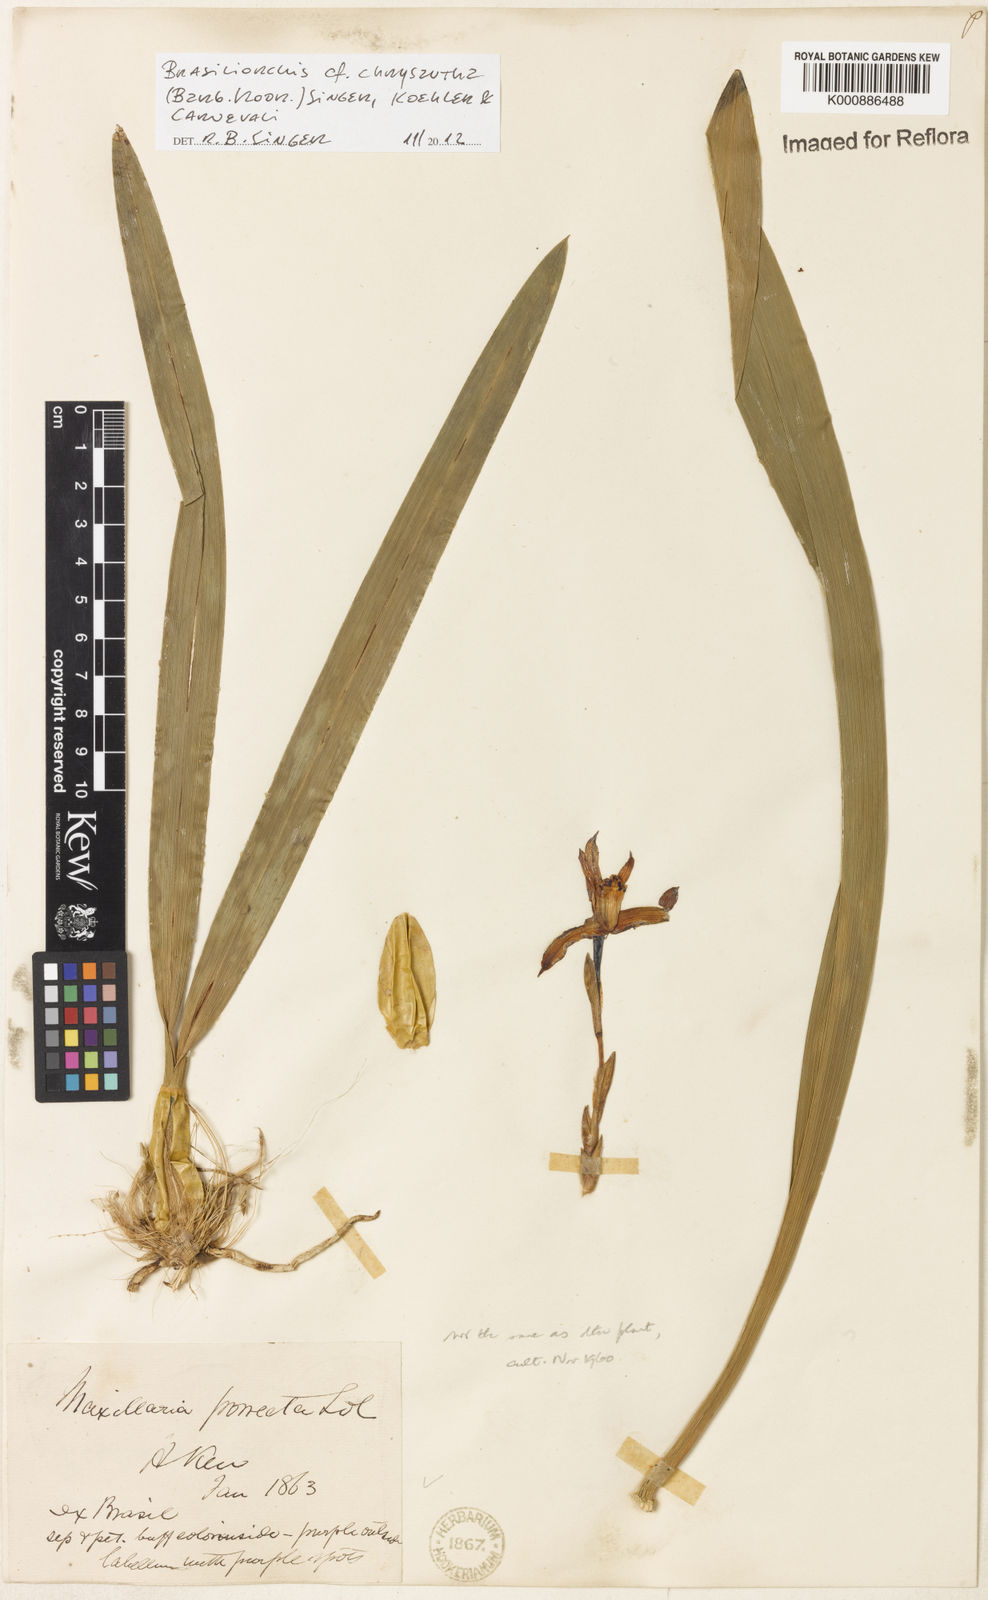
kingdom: Plantae
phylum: Tracheophyta
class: Liliopsida
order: Asparagales
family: Orchidaceae
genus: Maxillaria
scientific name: Maxillaria chrysantha
